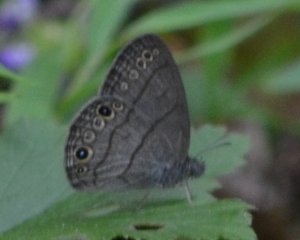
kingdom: Animalia
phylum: Arthropoda
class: Insecta
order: Lepidoptera
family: Nymphalidae
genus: Hermeuptychia
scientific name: Hermeuptychia hermes
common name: Carolina Satyr
